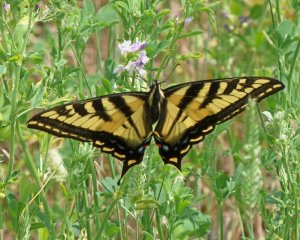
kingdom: Animalia
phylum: Arthropoda
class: Insecta
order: Lepidoptera
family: Papilionidae
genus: Pterourus
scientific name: Pterourus rutulus
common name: Western Tiger Swallowtail
